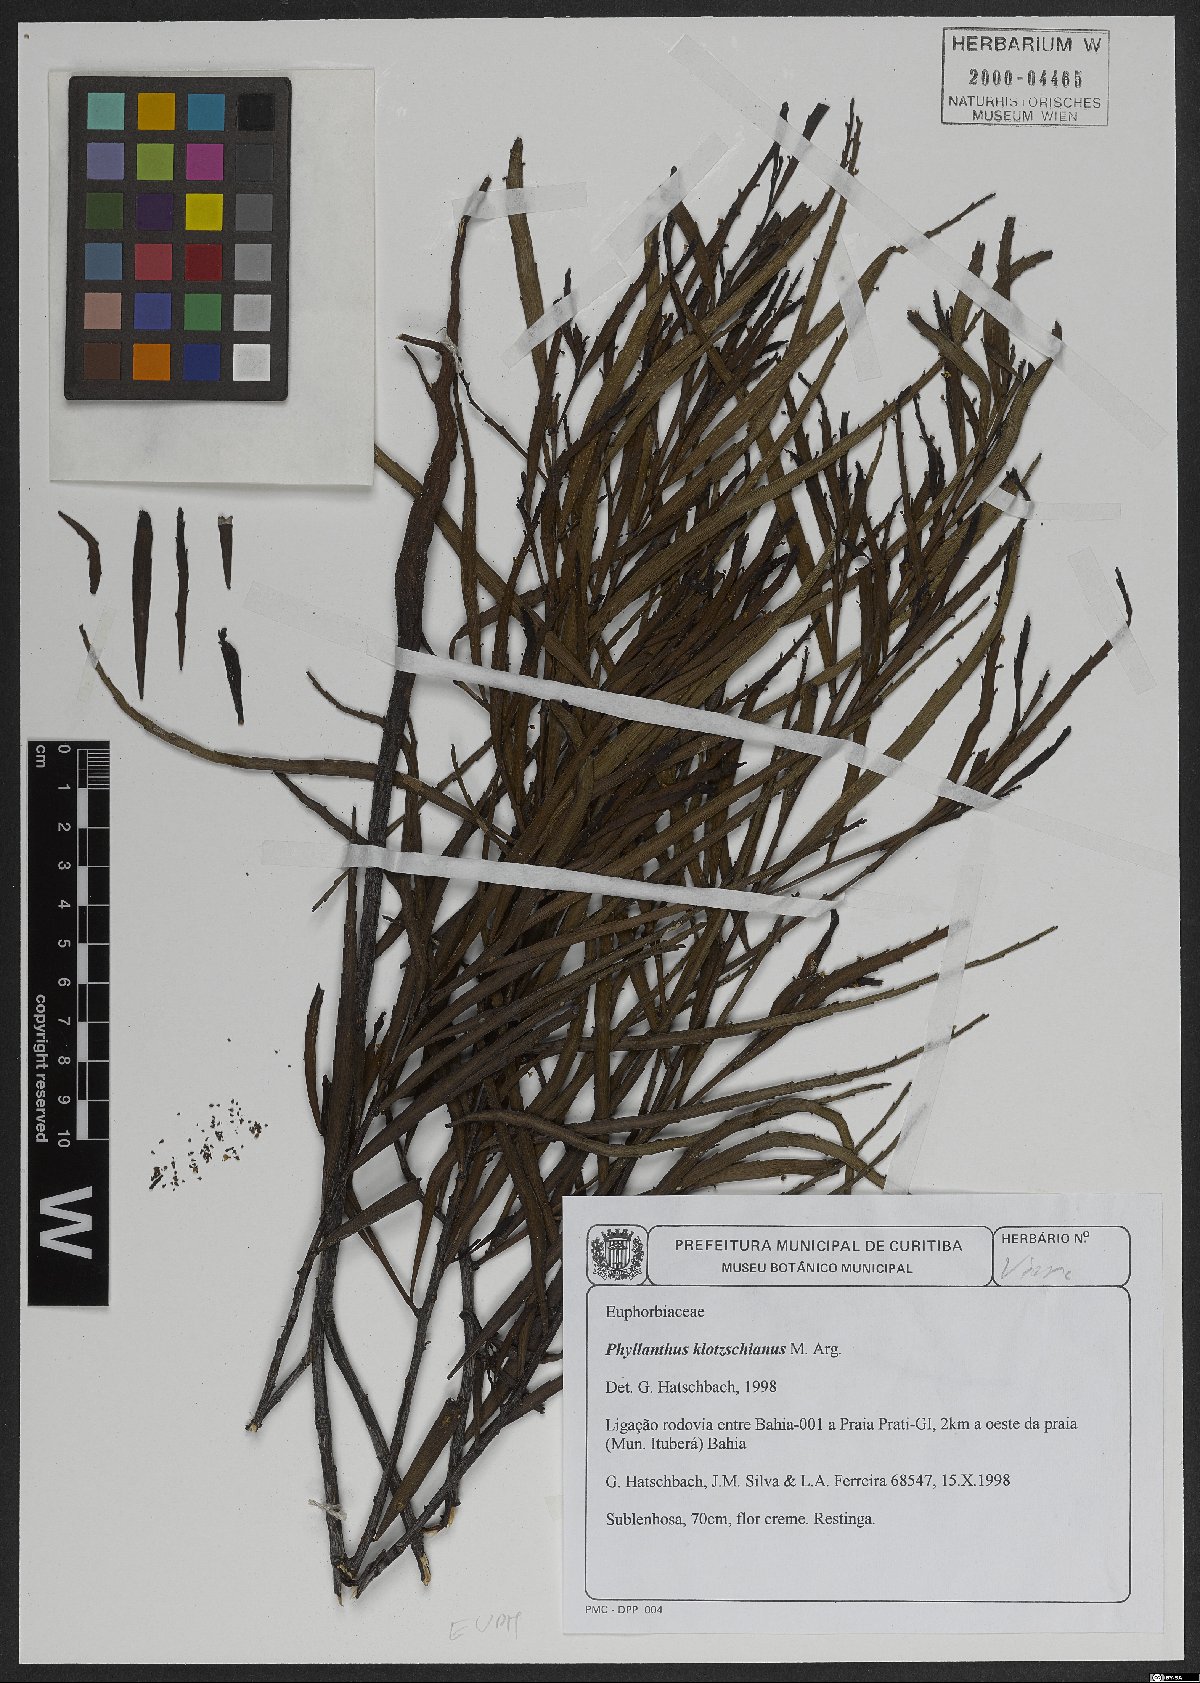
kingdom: Plantae
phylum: Tracheophyta
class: Magnoliopsida
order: Malpighiales
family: Phyllanthaceae
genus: Phyllanthus
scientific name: Phyllanthus robustus
